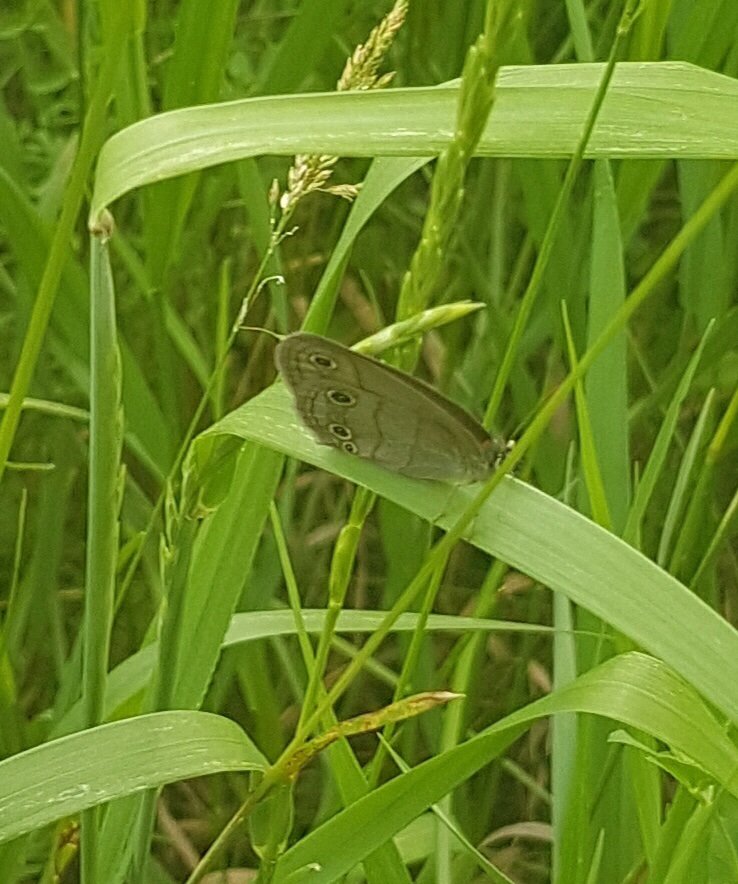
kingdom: Animalia
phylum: Arthropoda
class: Insecta
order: Lepidoptera
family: Nymphalidae
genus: Euptychia
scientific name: Euptychia cymela
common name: Little Wood Satyr
